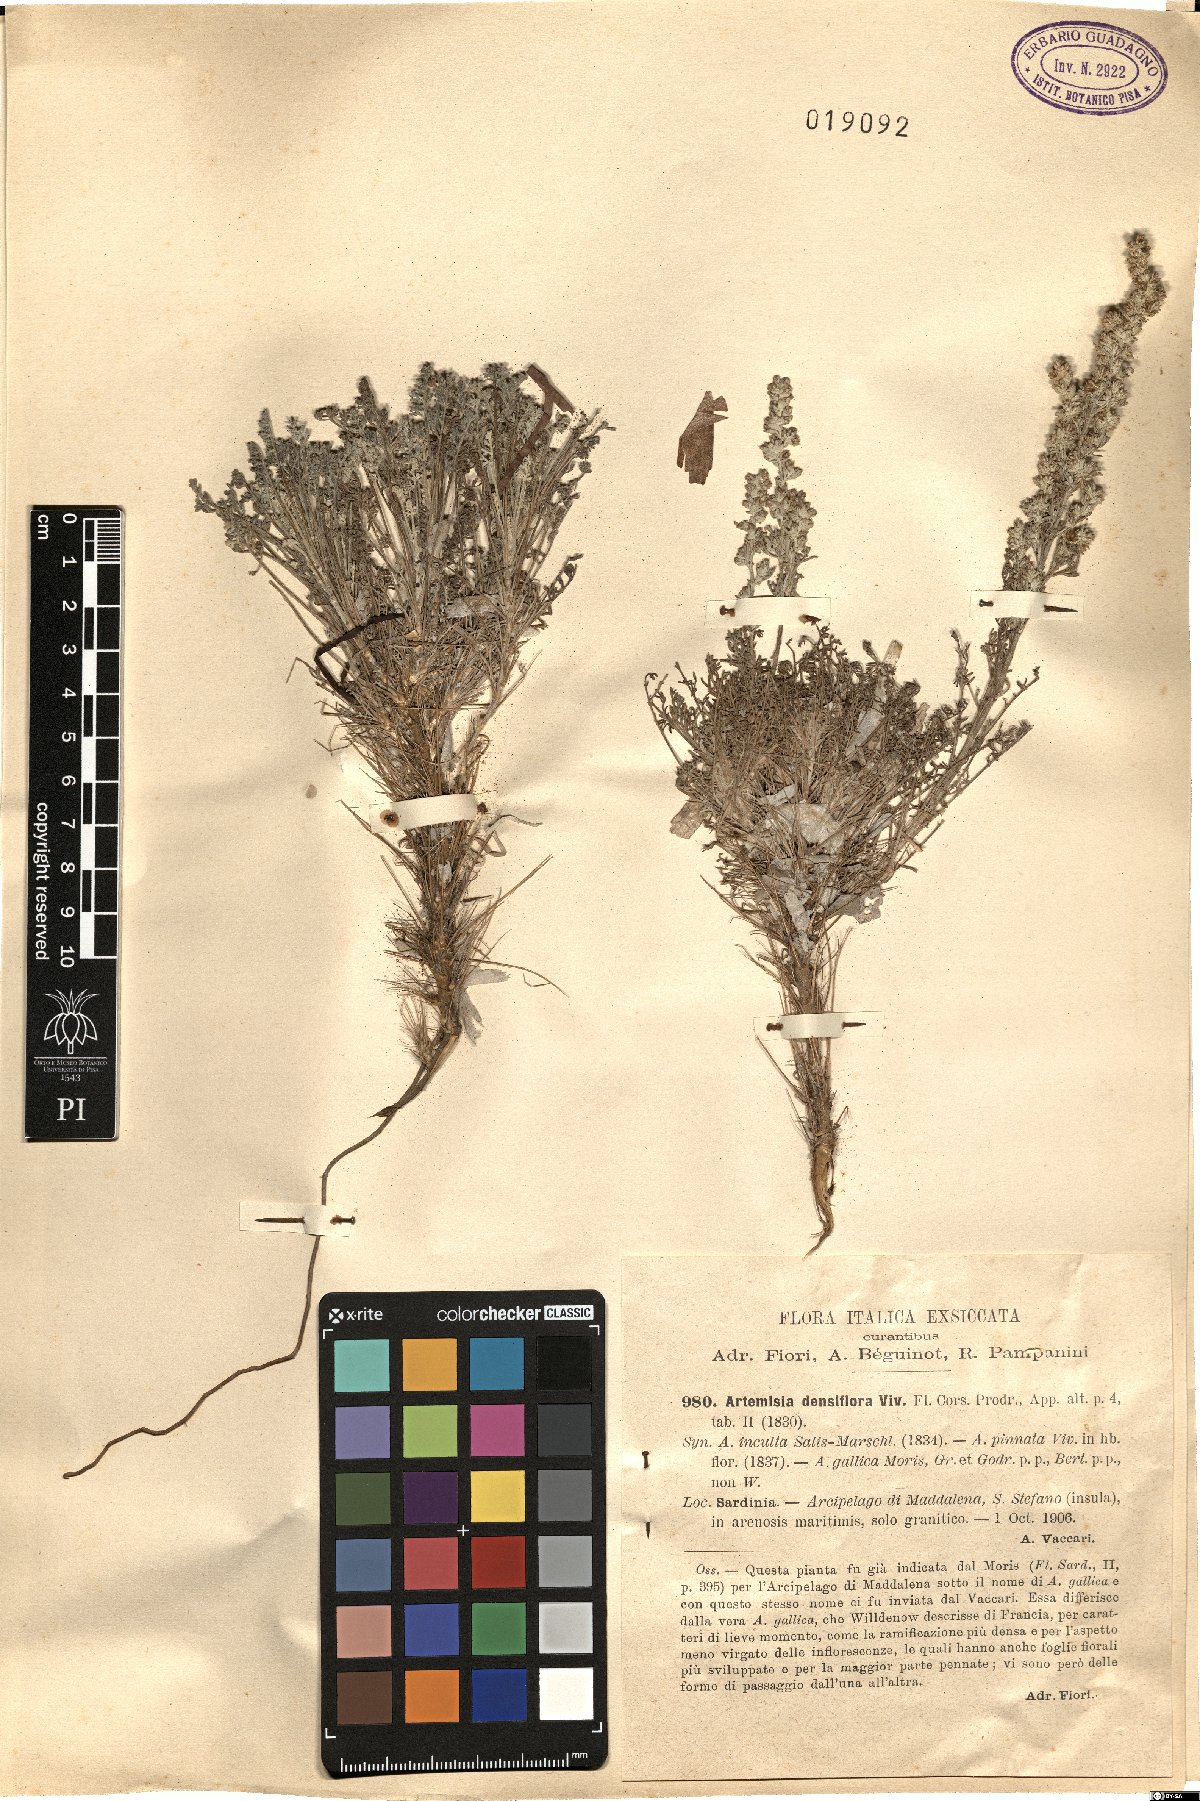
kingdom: Plantae
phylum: Tracheophyta
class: Magnoliopsida
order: Asterales
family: Asteraceae
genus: Artemisia
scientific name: Artemisia caerulescens
